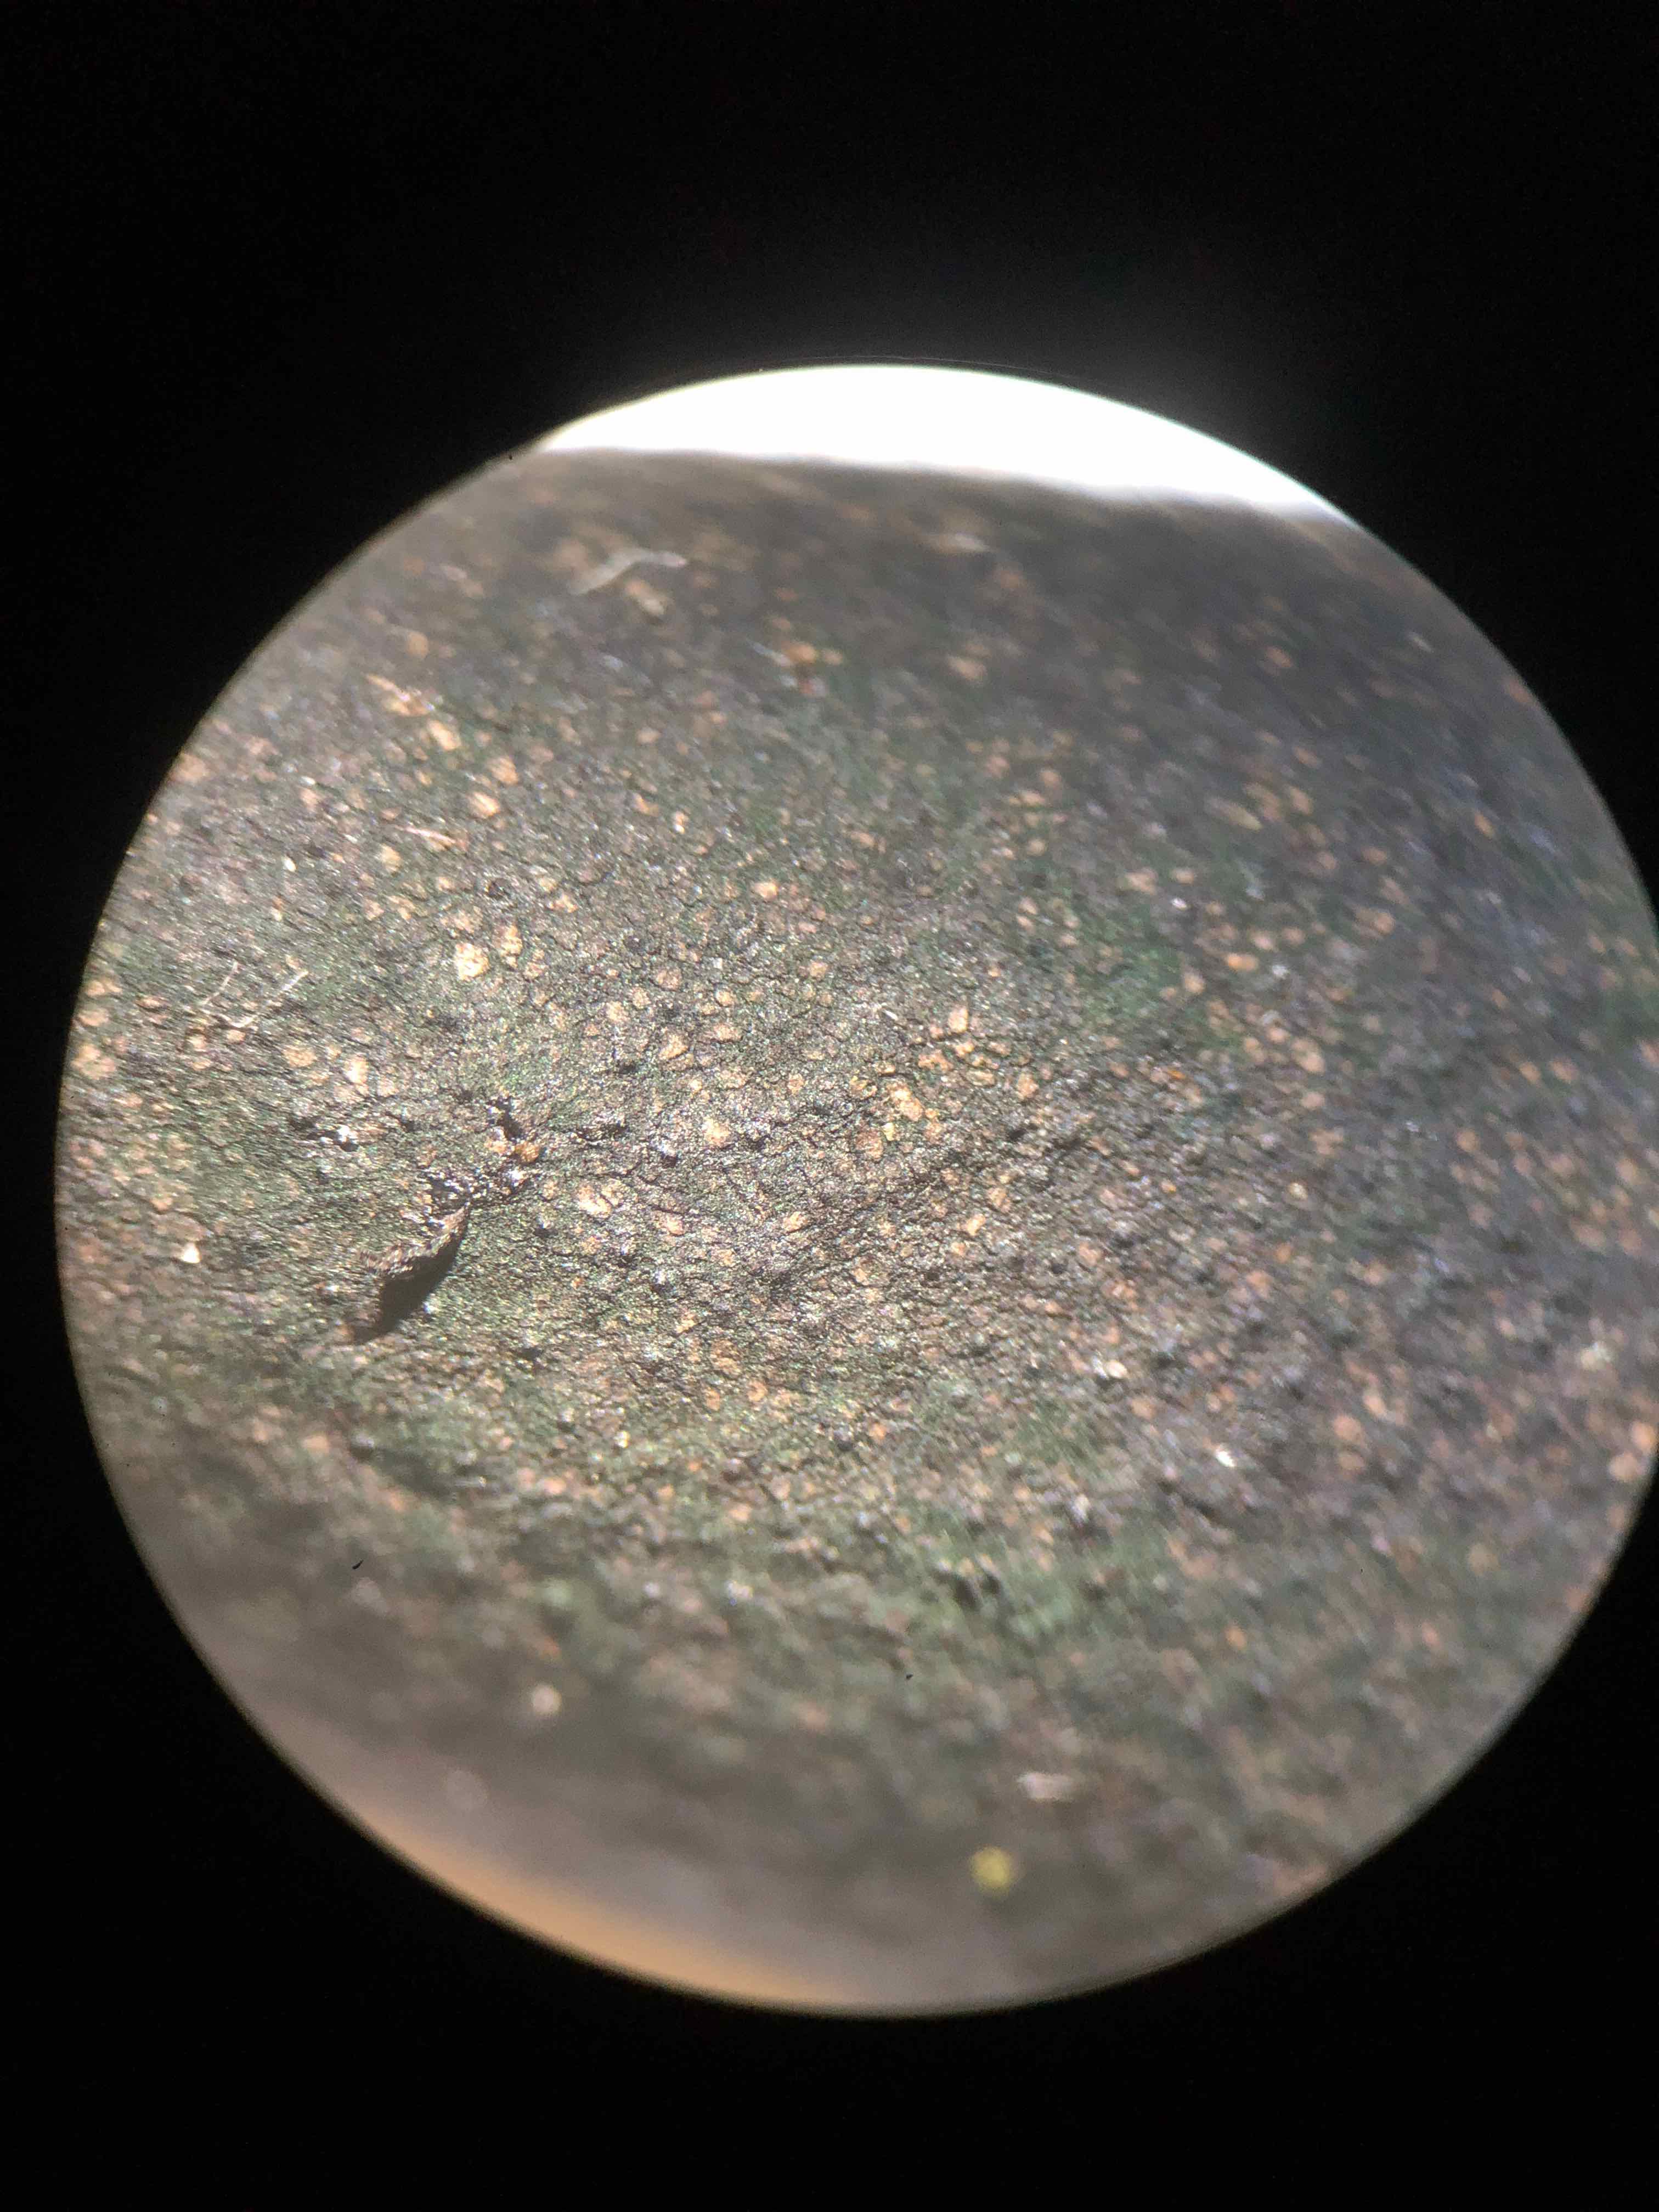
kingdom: Fungi
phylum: Ascomycota
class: Sordariomycetes
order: Xylariales
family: Xylariaceae
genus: Xylaria
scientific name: Xylaria longipes
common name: slank stødsvamp
